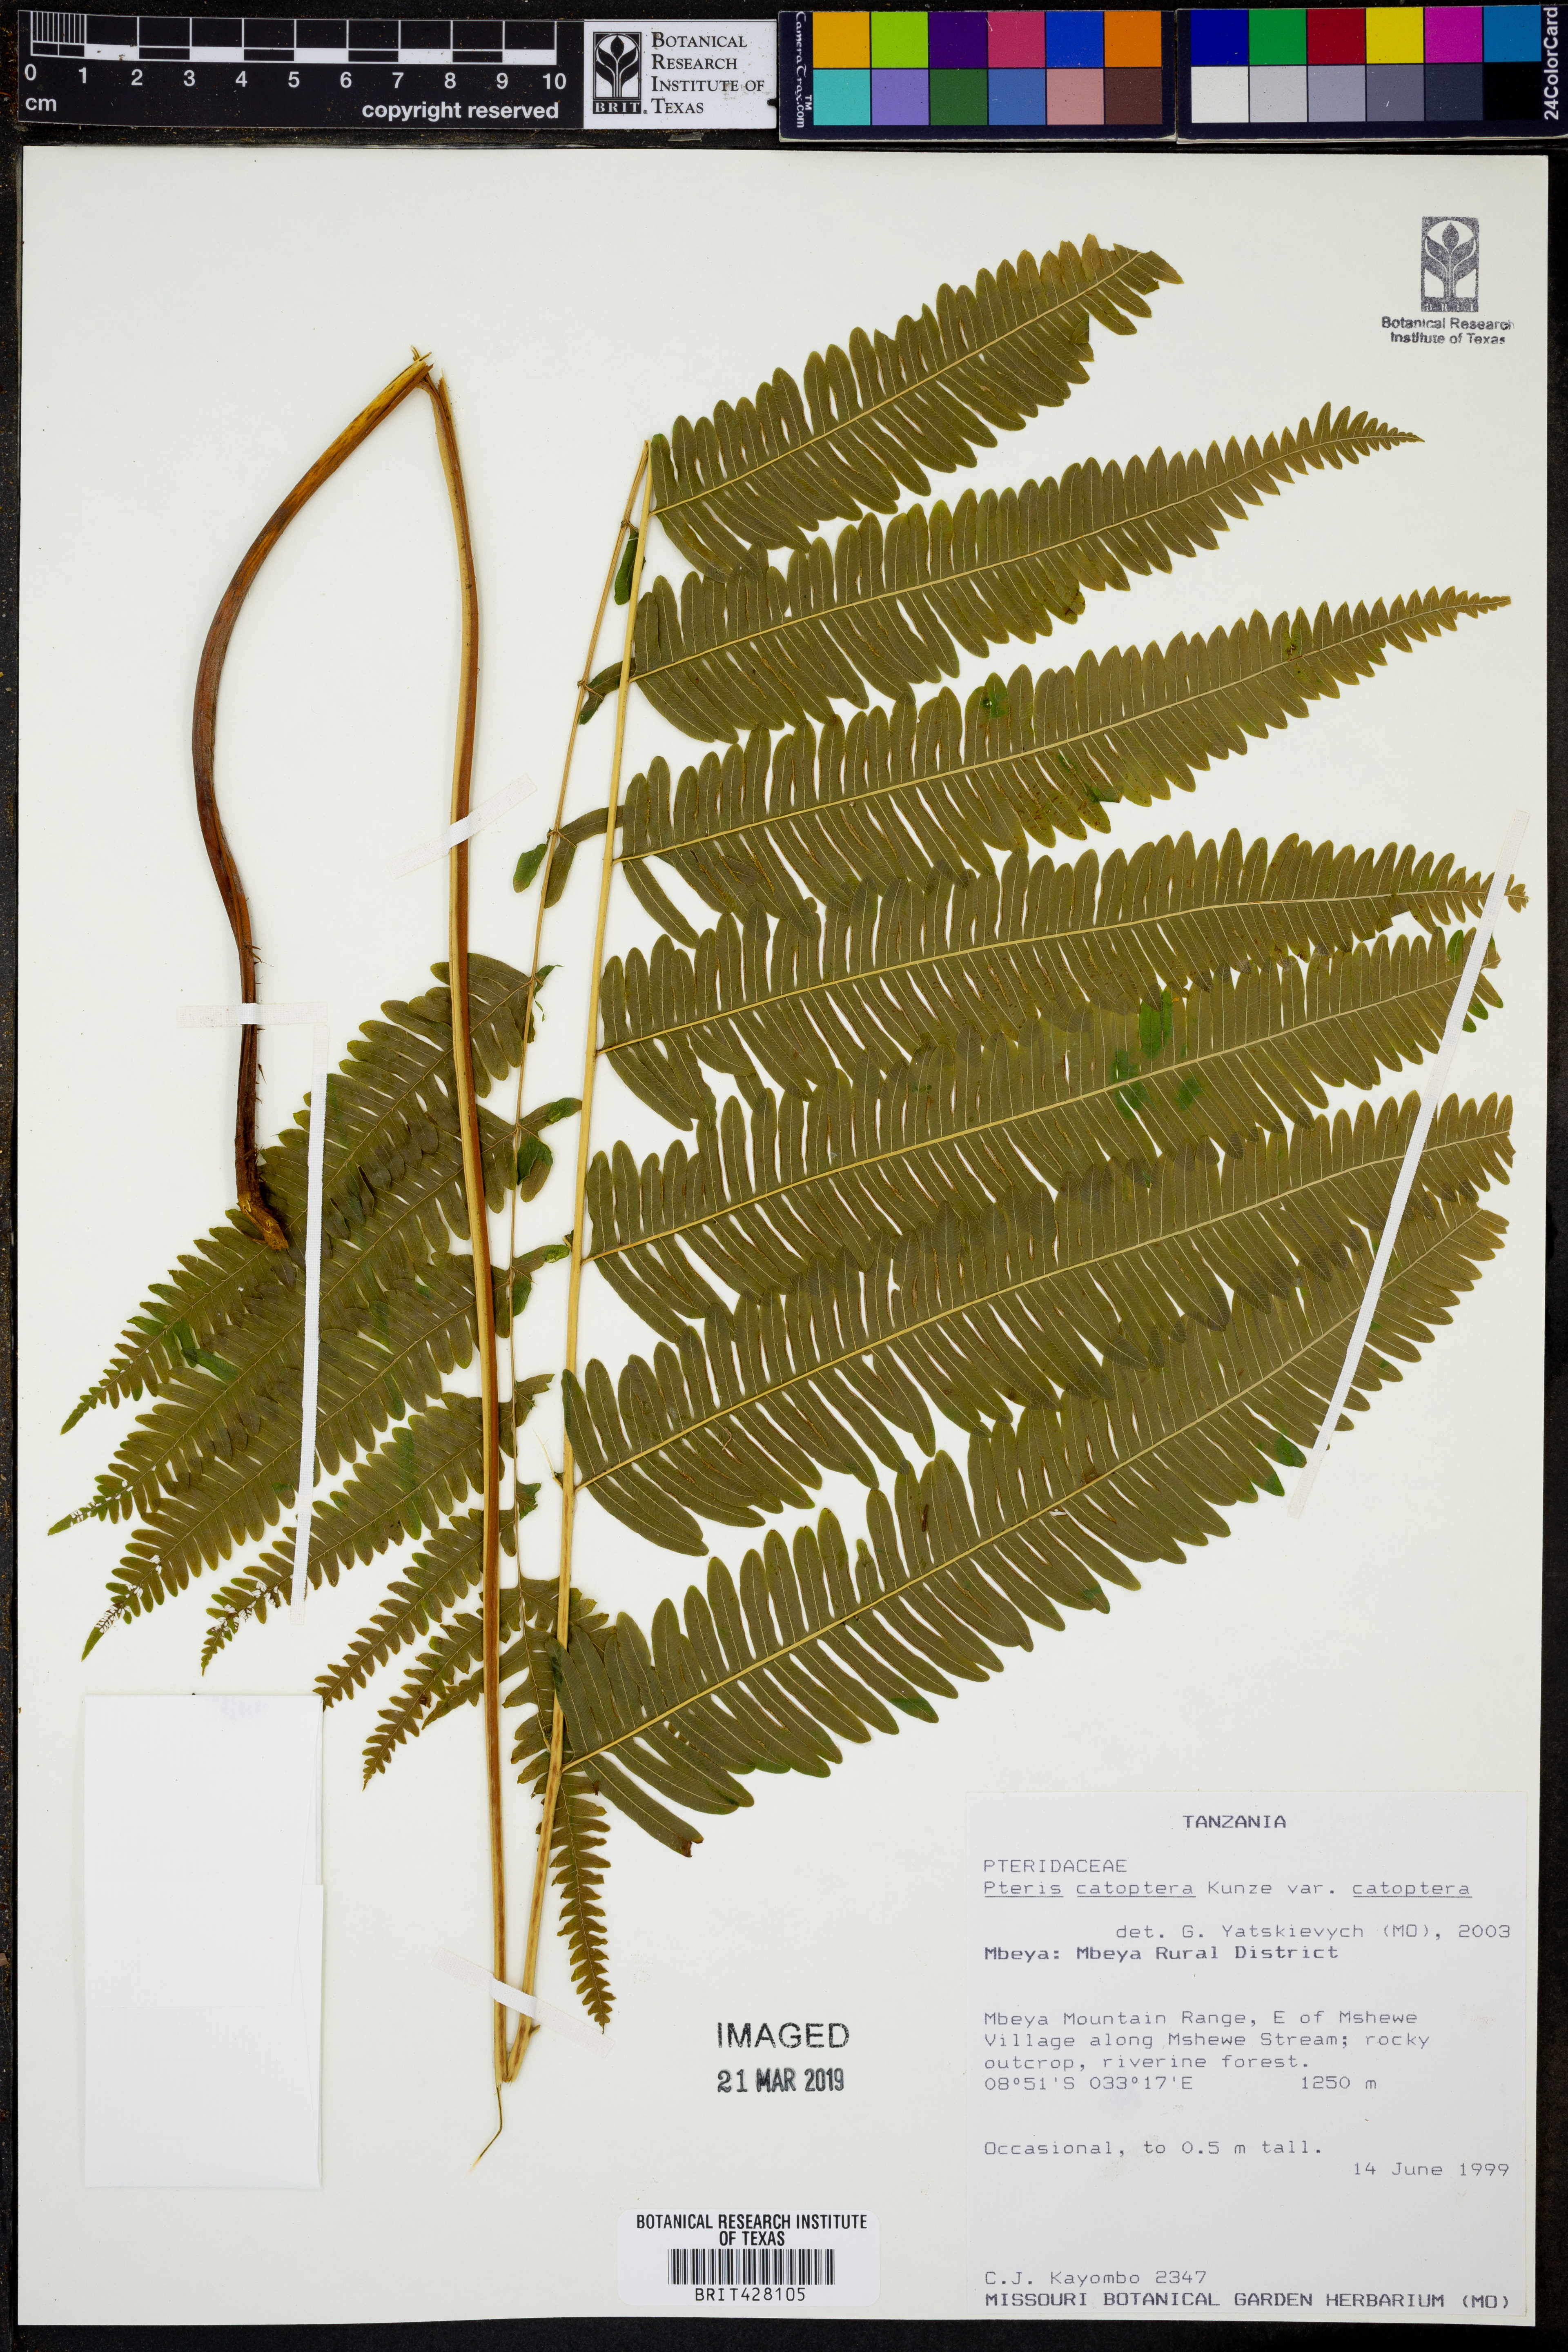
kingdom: Plantae
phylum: Tracheophyta
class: Polypodiopsida
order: Polypodiales
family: Pteridaceae
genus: Pteris
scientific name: Pteris catoptera
